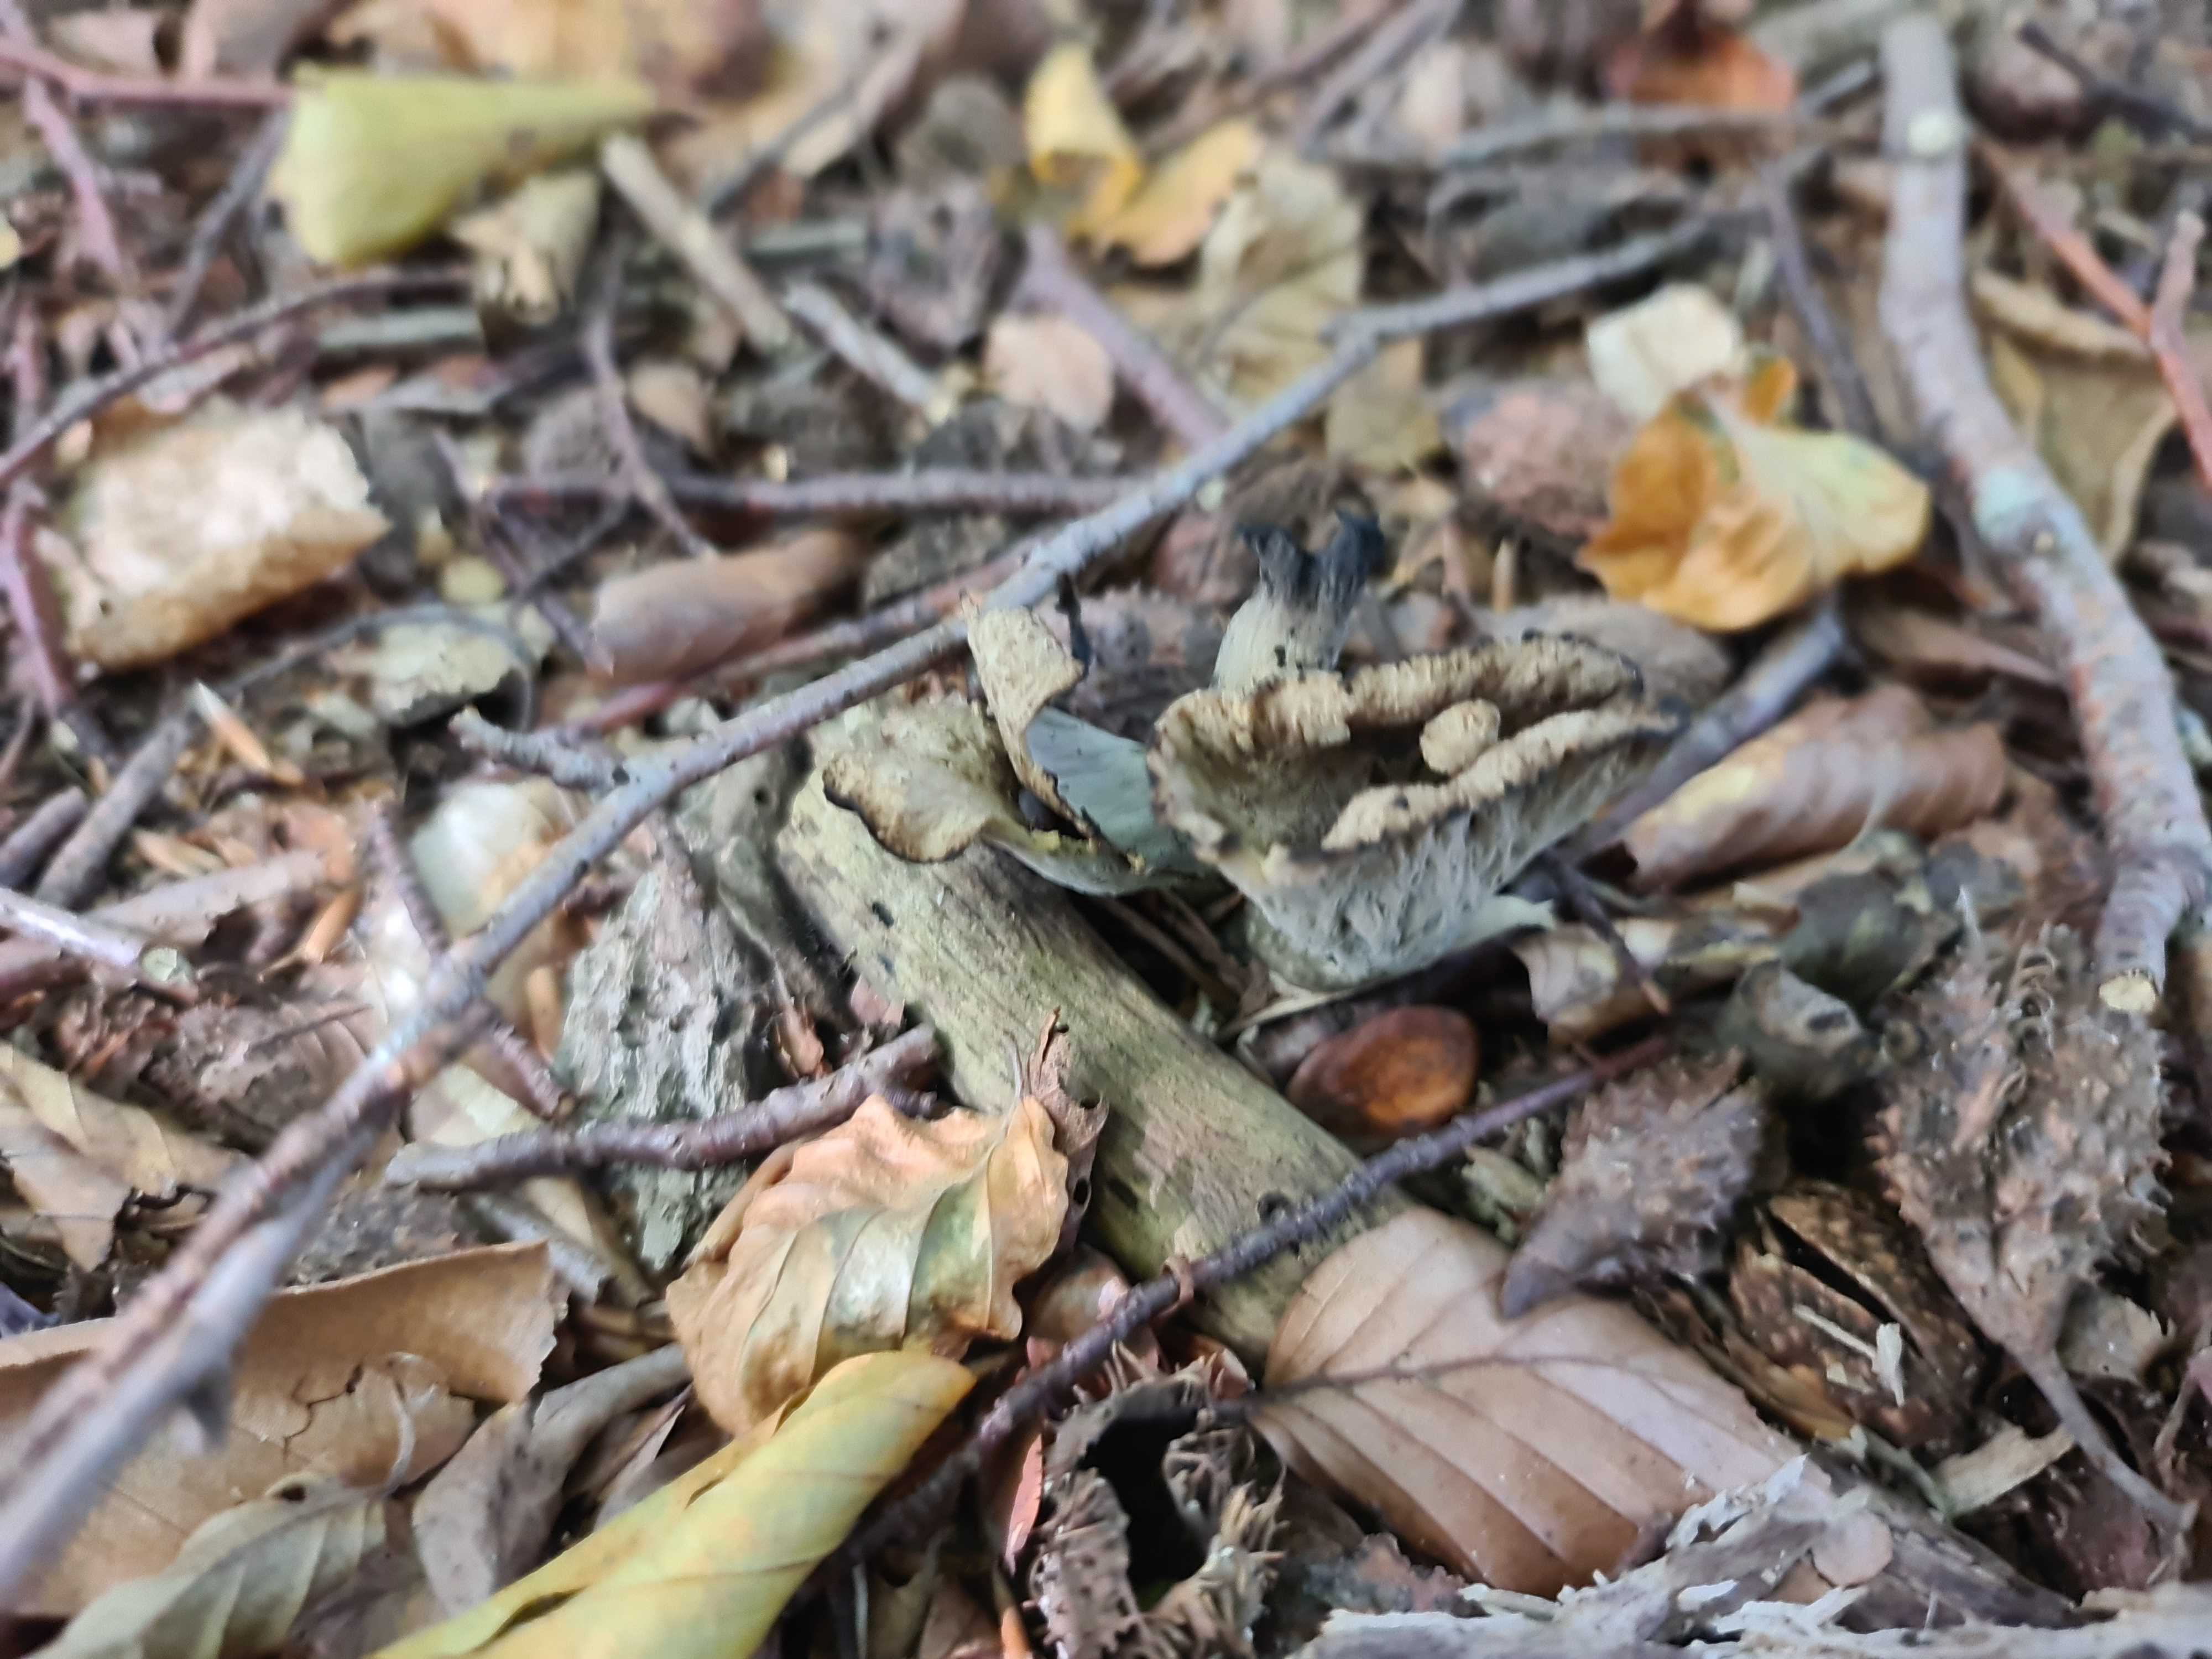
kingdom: Fungi
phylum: Basidiomycota
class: Agaricomycetes
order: Cantharellales
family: Hydnaceae
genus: Craterellus
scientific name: Craterellus cornucopioides
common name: trompetsvamp
